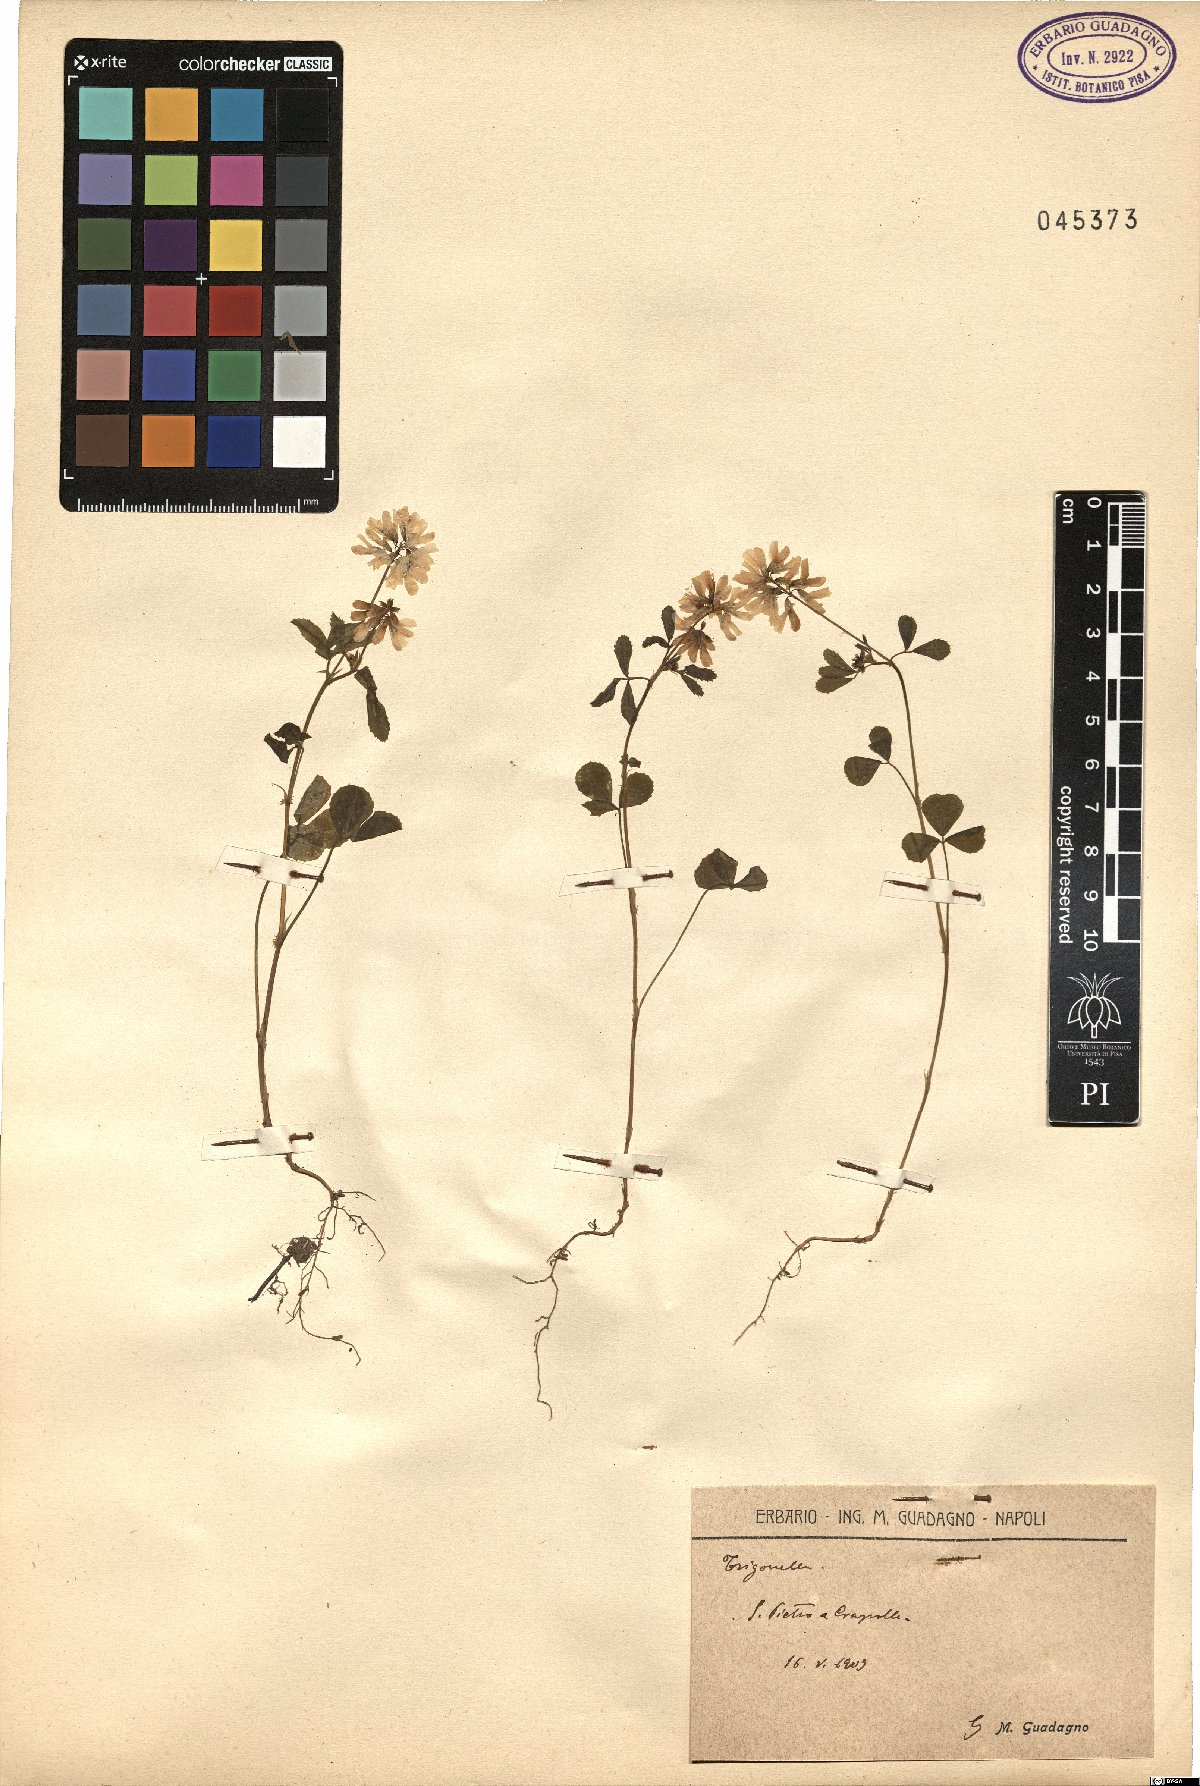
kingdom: Plantae
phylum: Tracheophyta
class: Magnoliopsida
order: Fabales
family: Fabaceae
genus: Trigonella
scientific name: Trigonella
